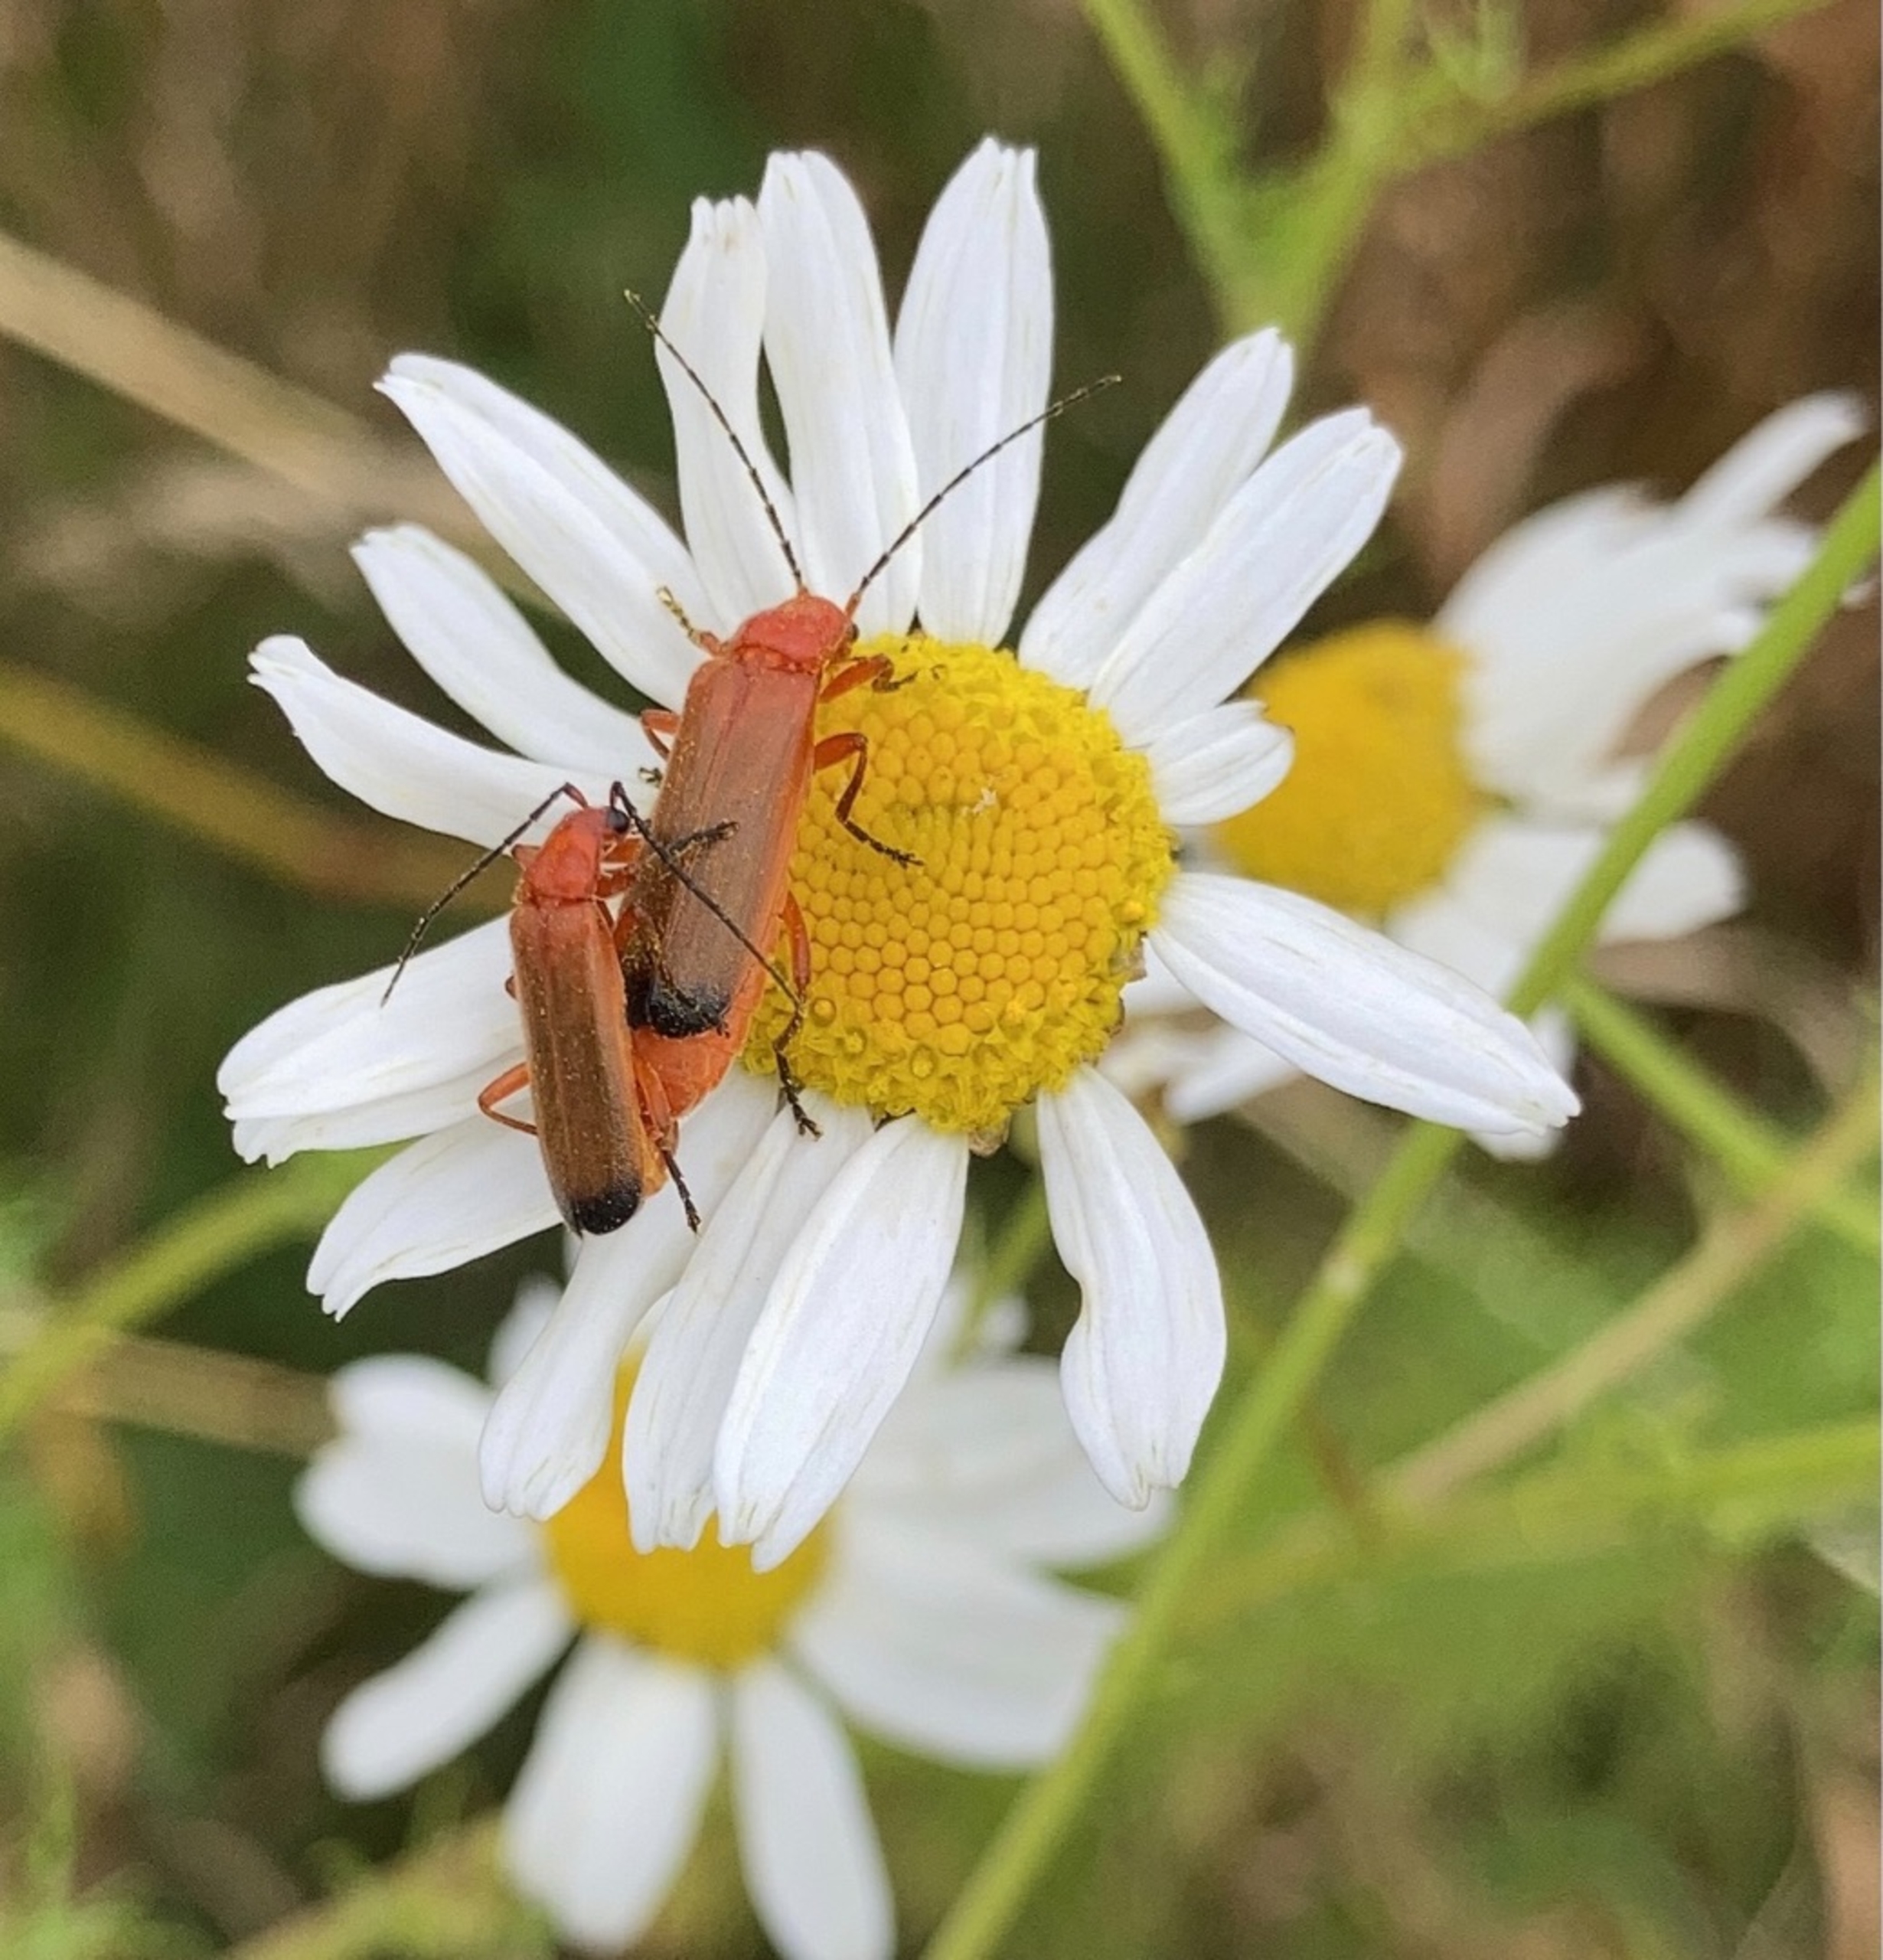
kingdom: Animalia
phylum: Arthropoda
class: Insecta
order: Coleoptera
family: Cantharidae
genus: Rhagonycha
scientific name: Rhagonycha fulva
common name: Præstebille
